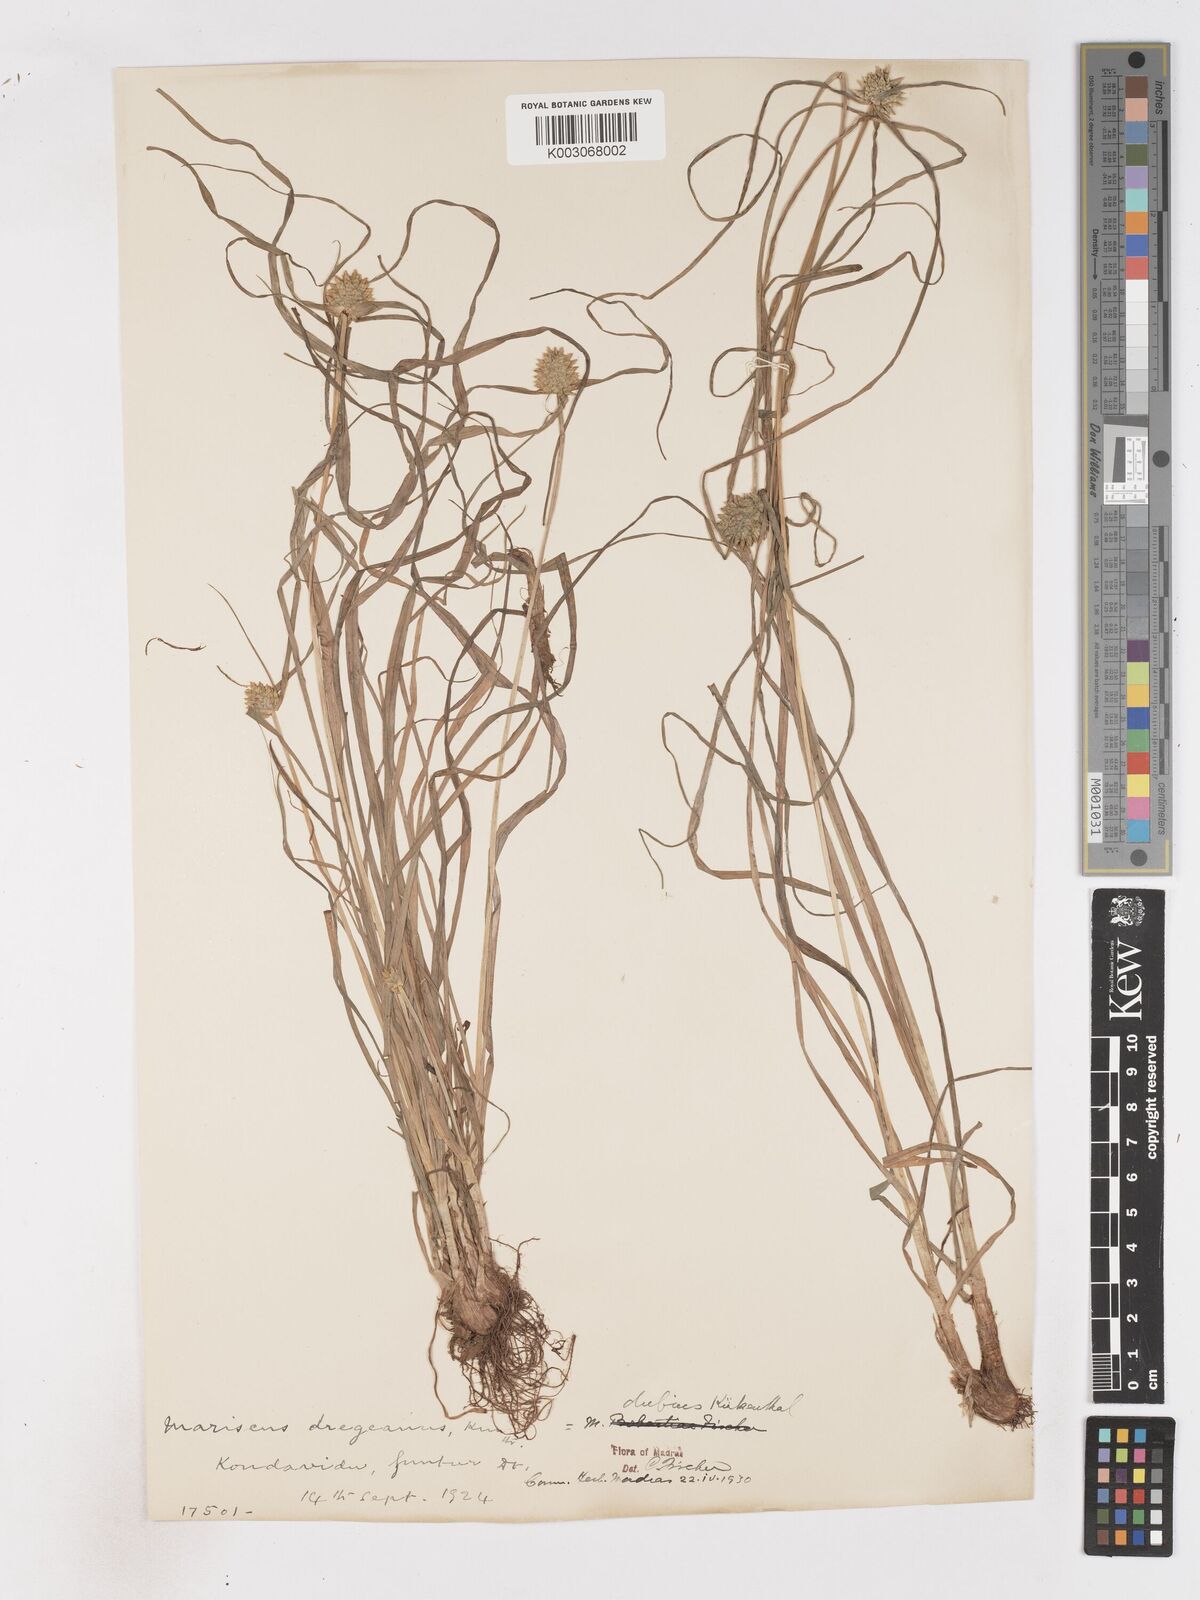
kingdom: Plantae
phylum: Tracheophyta
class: Liliopsida
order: Poales
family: Cyperaceae
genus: Cyperus
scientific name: Cyperus dubius
